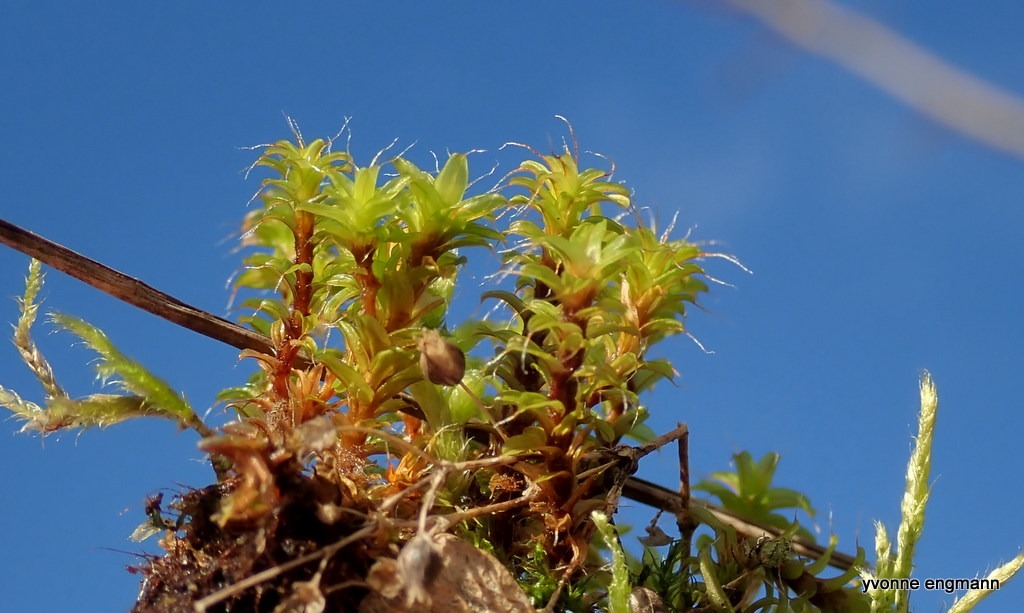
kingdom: Plantae
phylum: Bryophyta
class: Bryopsida
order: Pottiales
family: Pottiaceae
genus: Syntrichia
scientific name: Syntrichia ruralis
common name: Tag-hårstjerne
